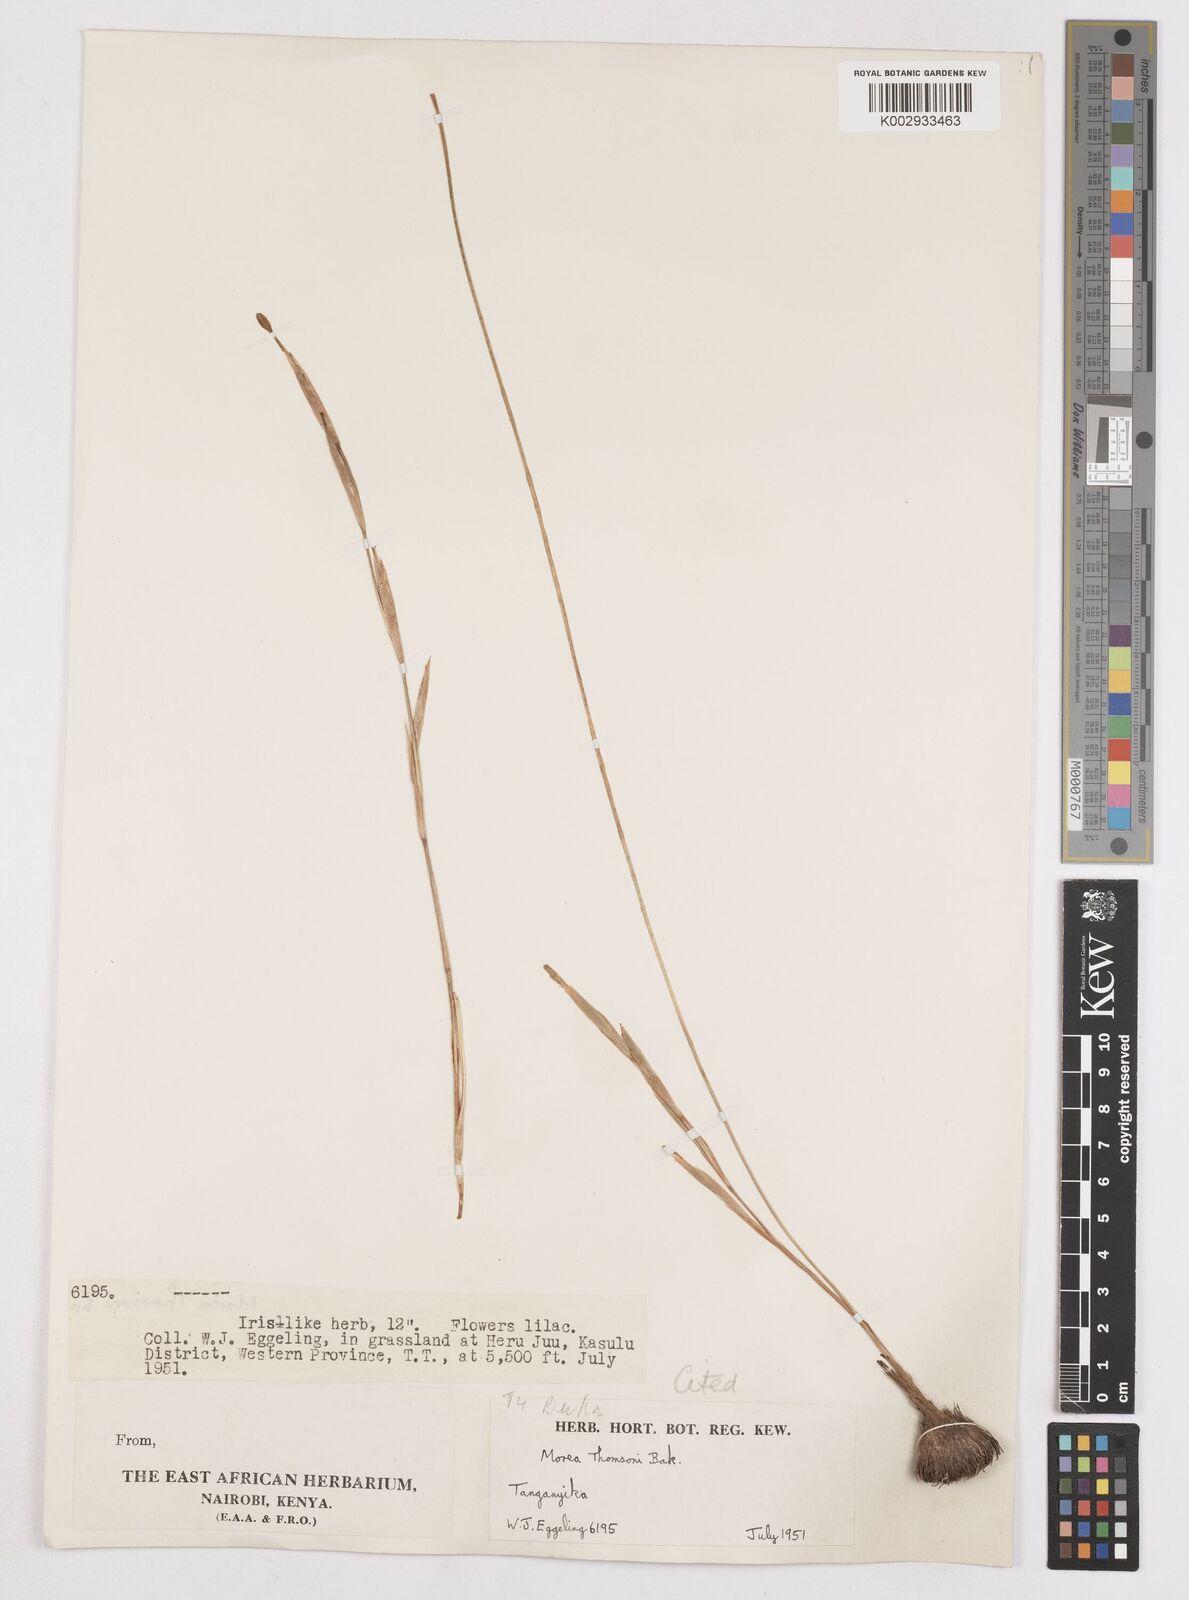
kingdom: Plantae
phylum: Tracheophyta
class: Liliopsida
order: Asparagales
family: Iridaceae
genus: Moraea
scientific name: Moraea thomsonii
